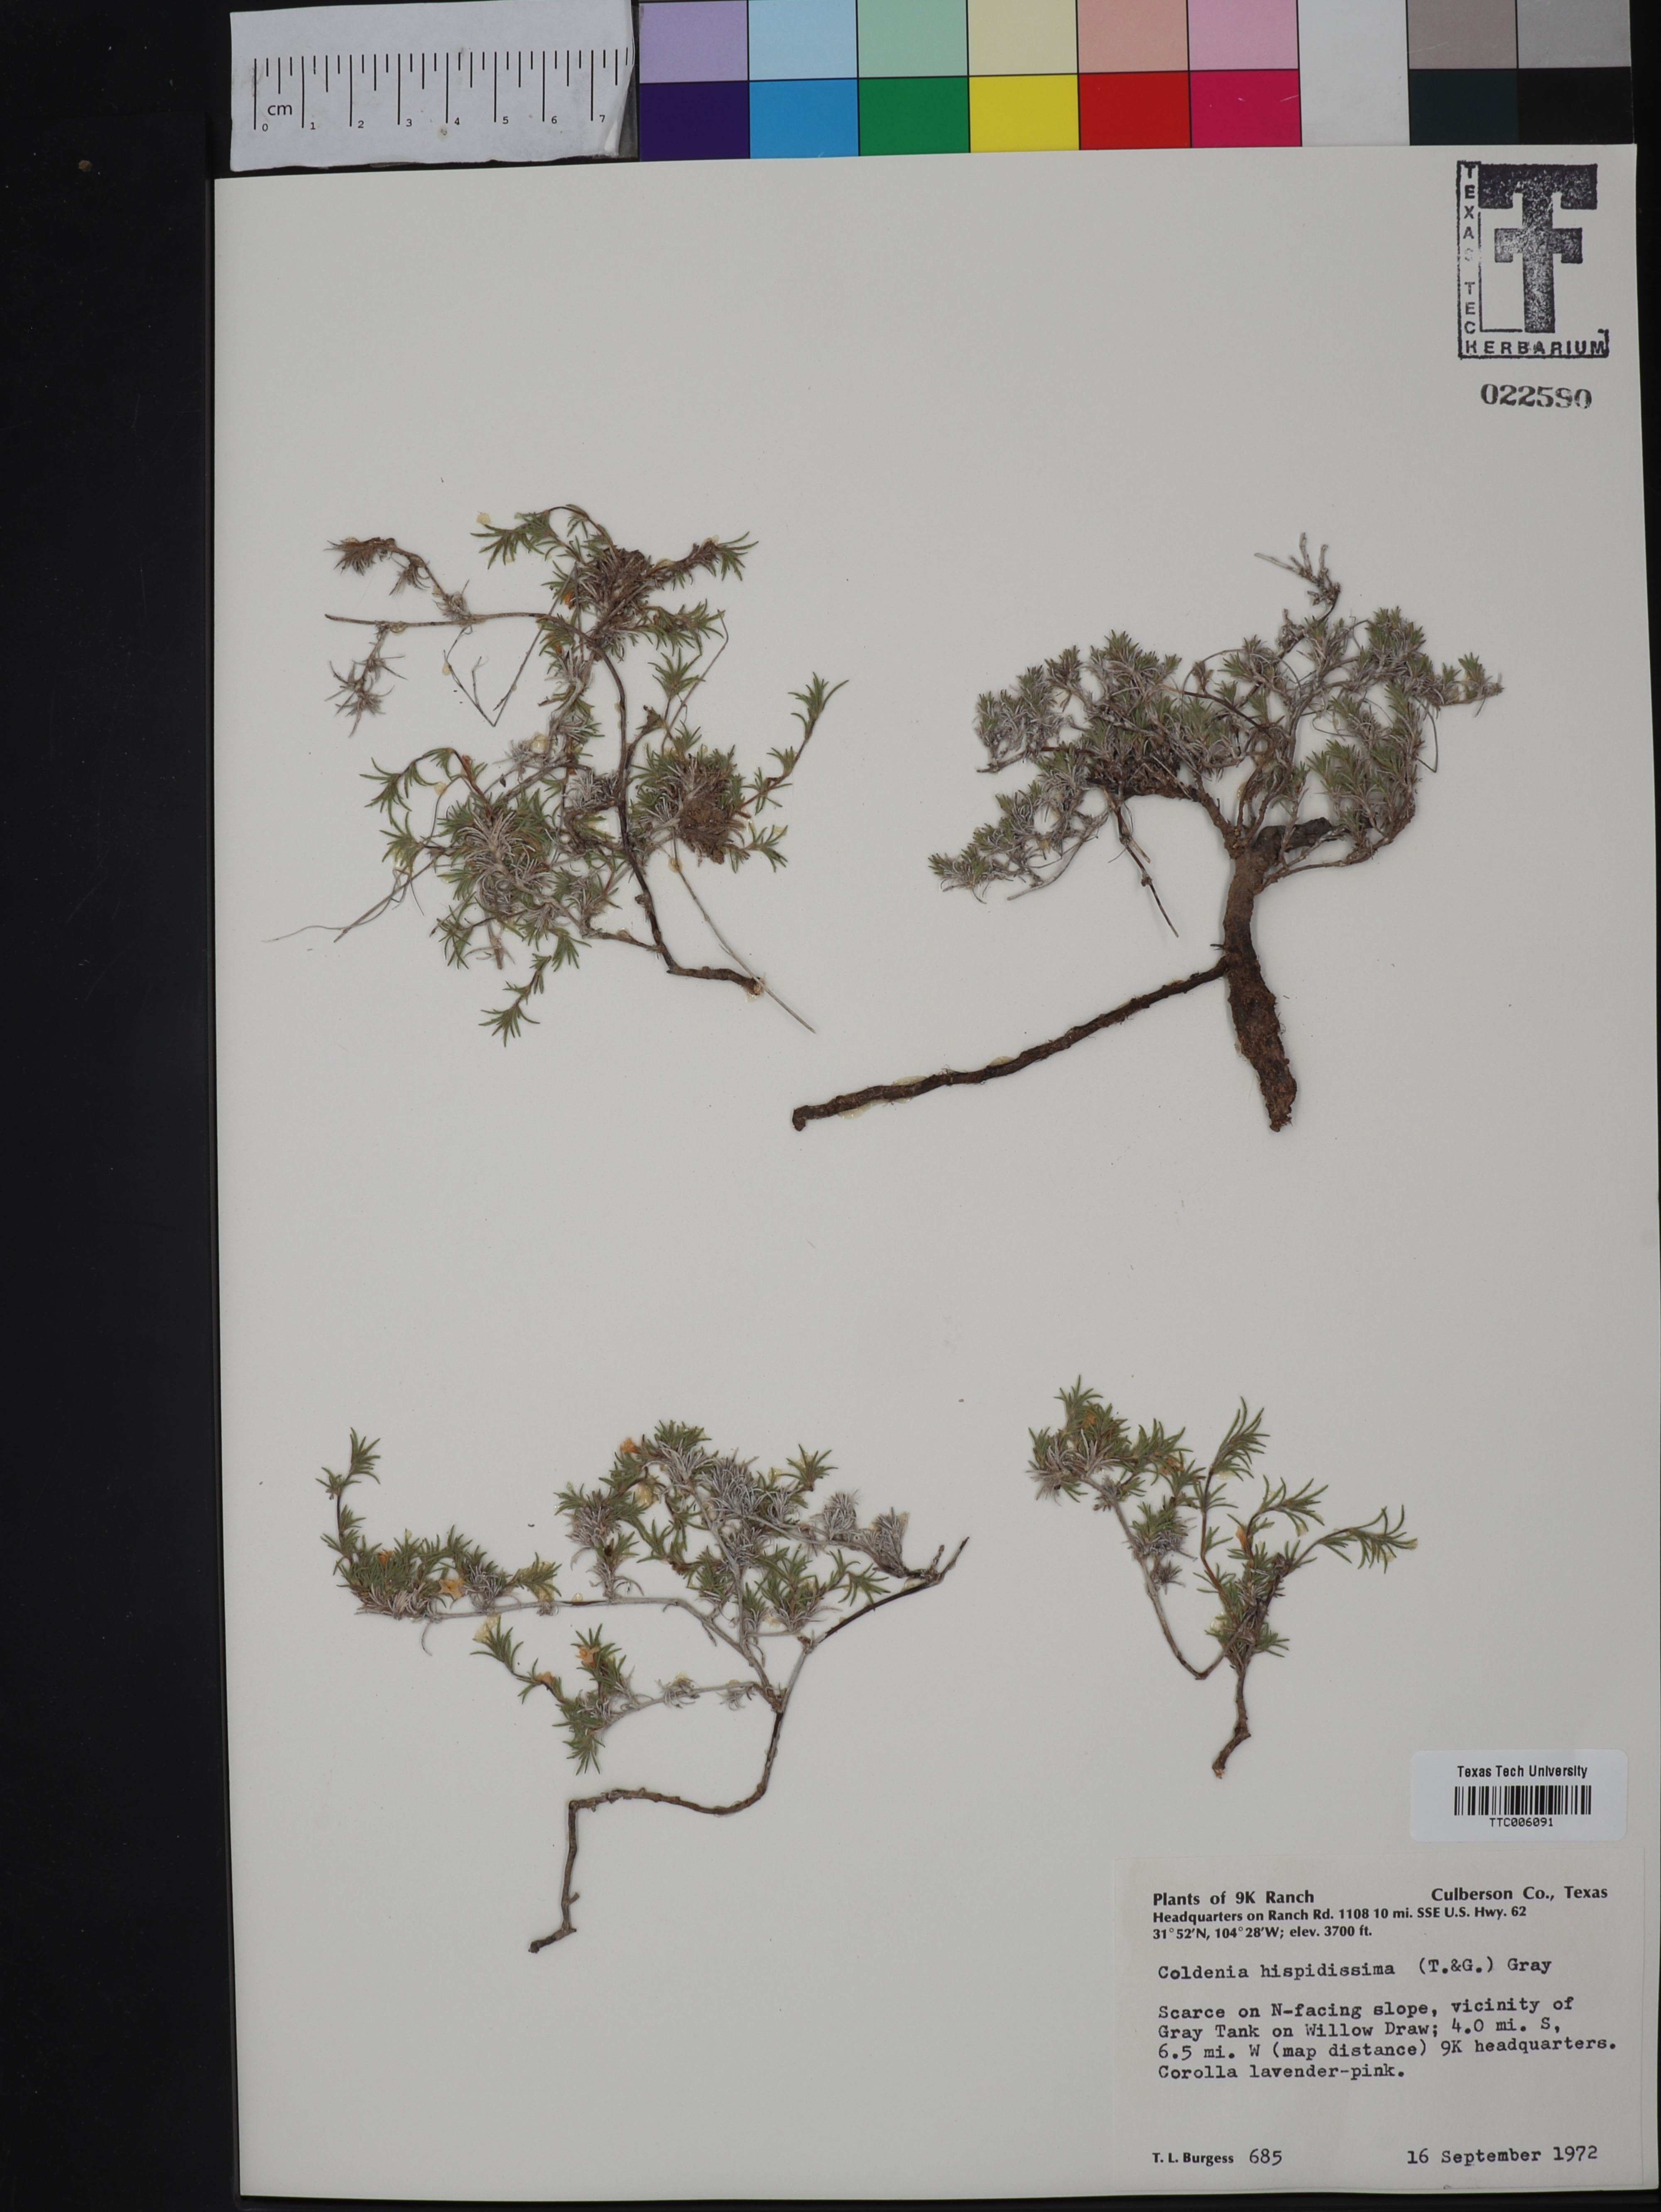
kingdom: Plantae
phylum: Tracheophyta
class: Magnoliopsida
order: Boraginales
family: Ehretiaceae
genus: Tiquilia
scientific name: Tiquilia hispidissima
